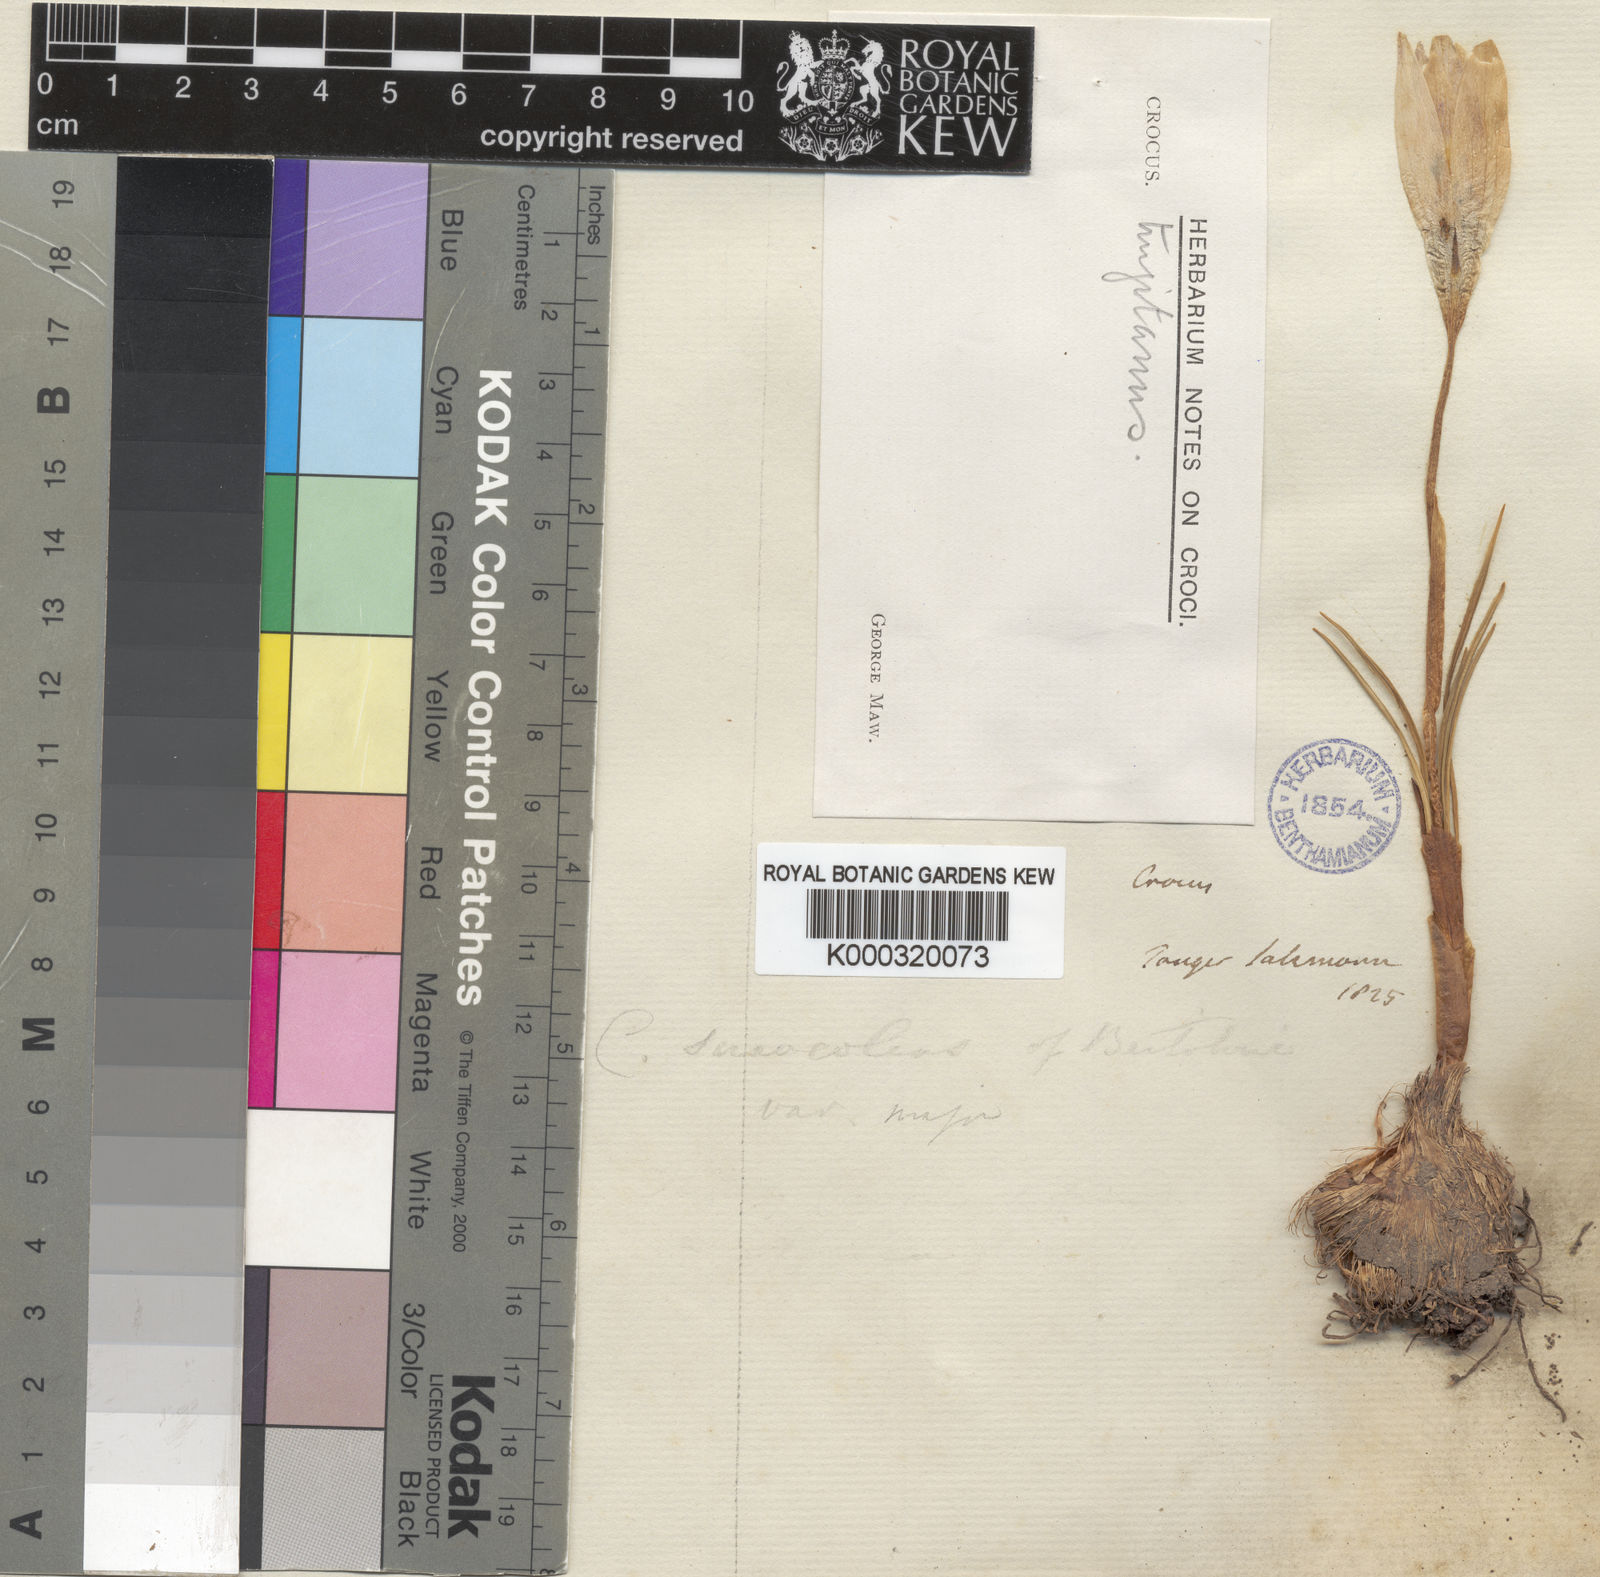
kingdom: Plantae
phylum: Tracheophyta
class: Liliopsida
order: Asparagales
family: Iridaceae
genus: Crocus
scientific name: Crocus salzmannii
